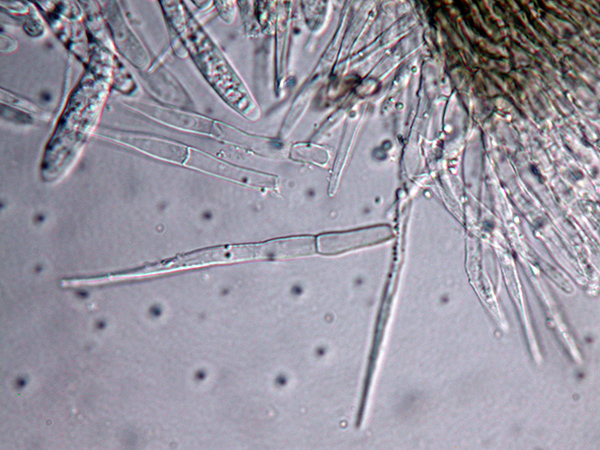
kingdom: Fungi
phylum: Ascomycota
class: Leotiomycetes
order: Helotiales
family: Hyaloscyphaceae
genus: Dematioscypha
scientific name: Dematioscypha dematiicola
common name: grålig skimmelskive
